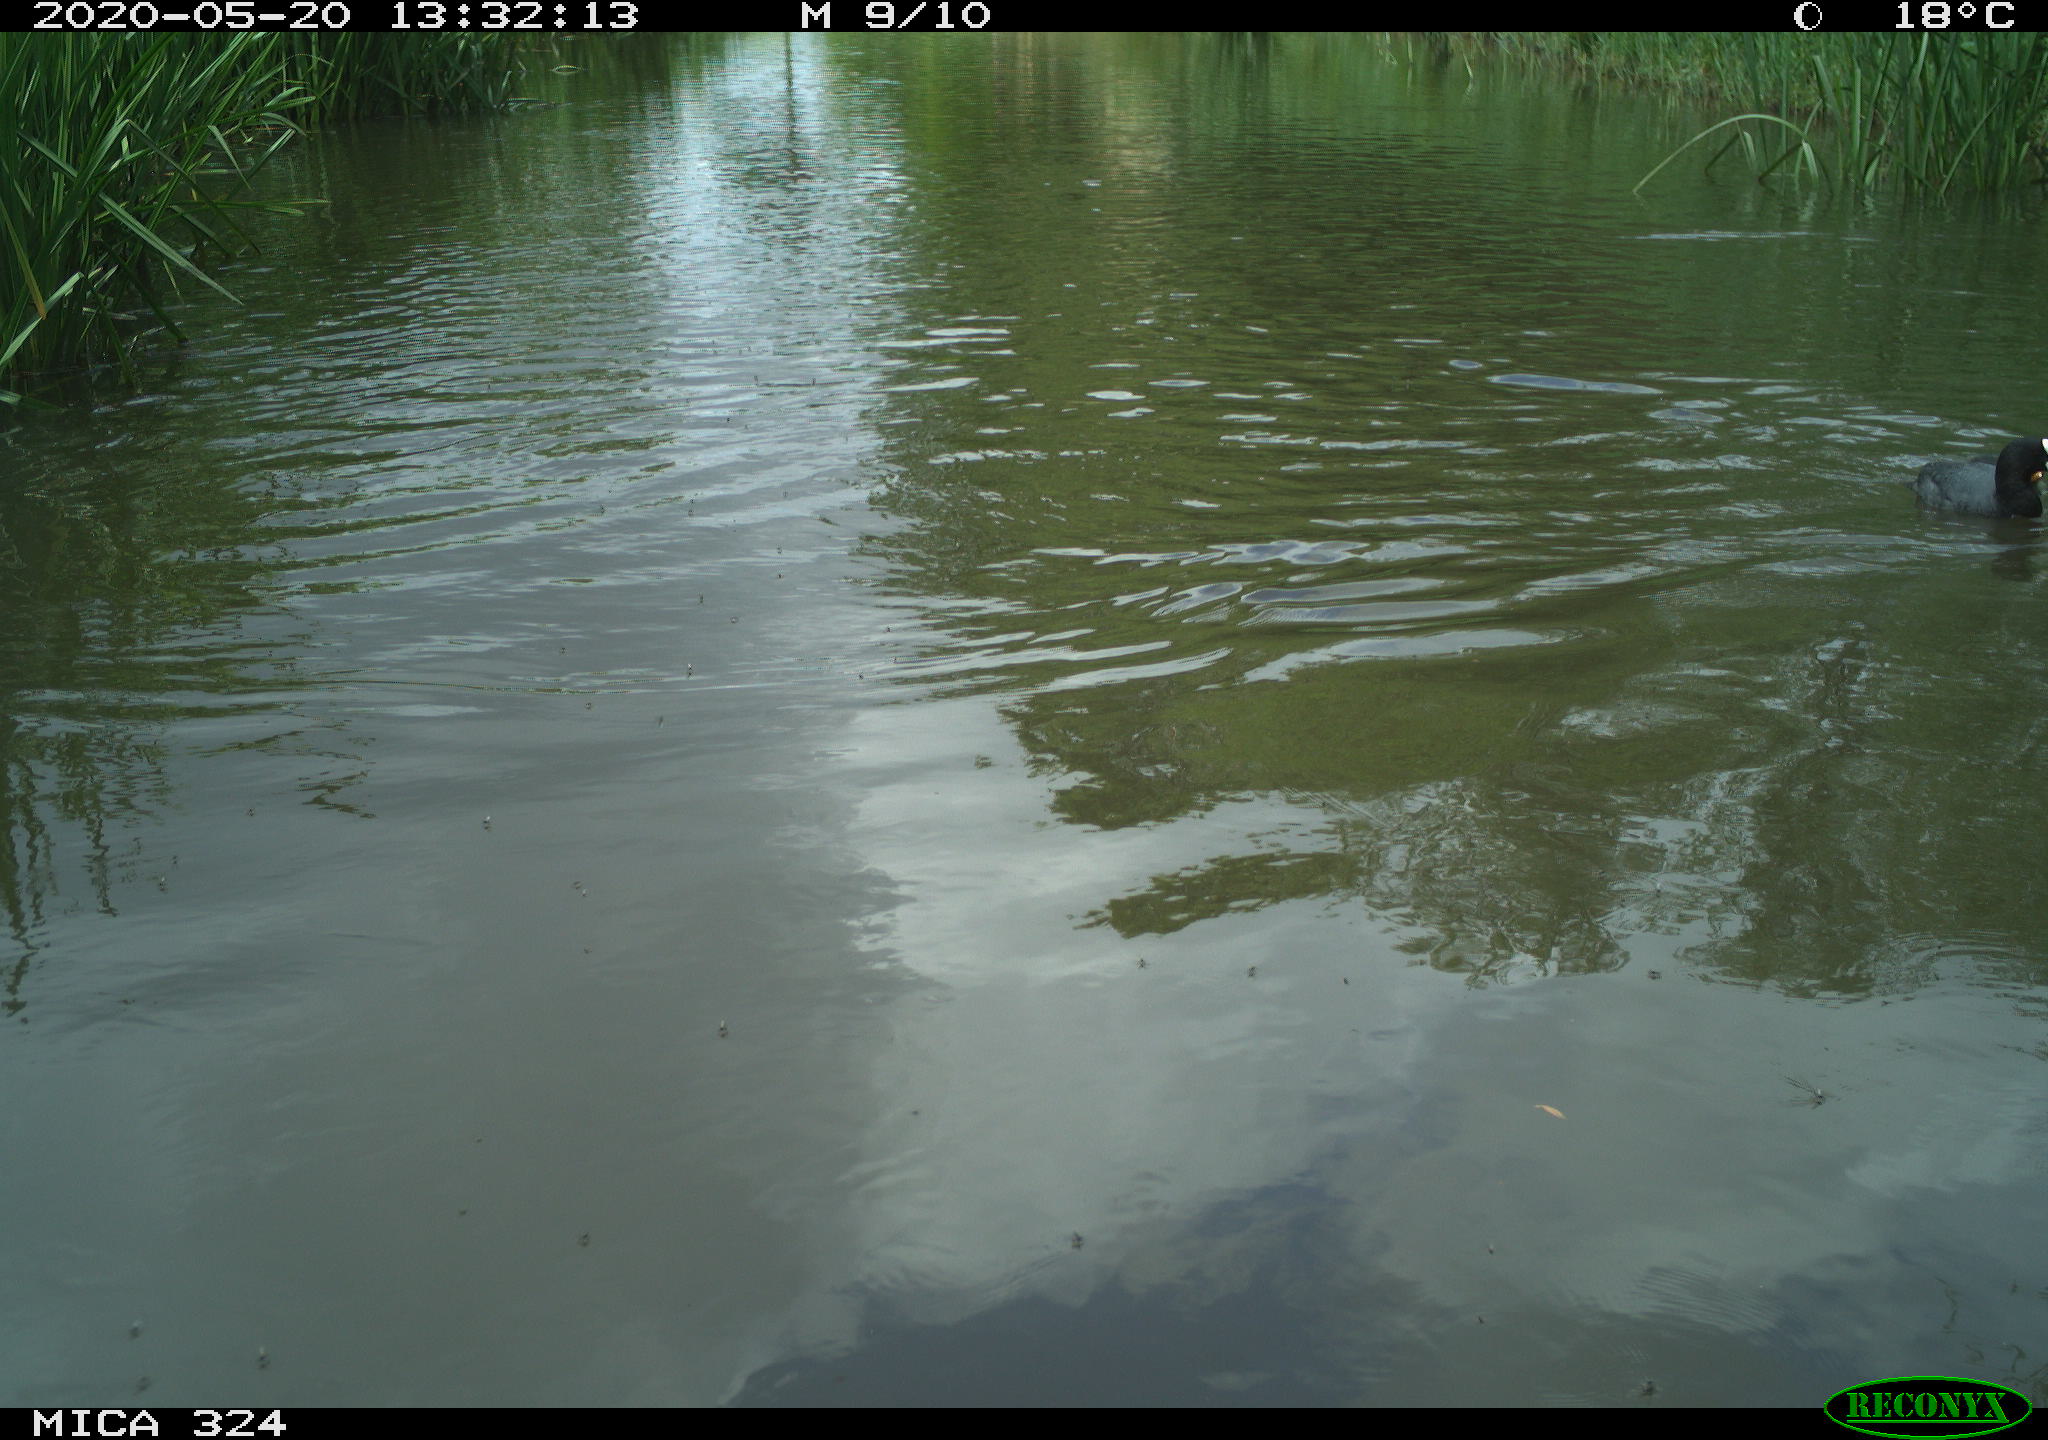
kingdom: Animalia
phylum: Chordata
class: Aves
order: Gruiformes
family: Rallidae
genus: Fulica
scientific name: Fulica atra
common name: Eurasian coot
